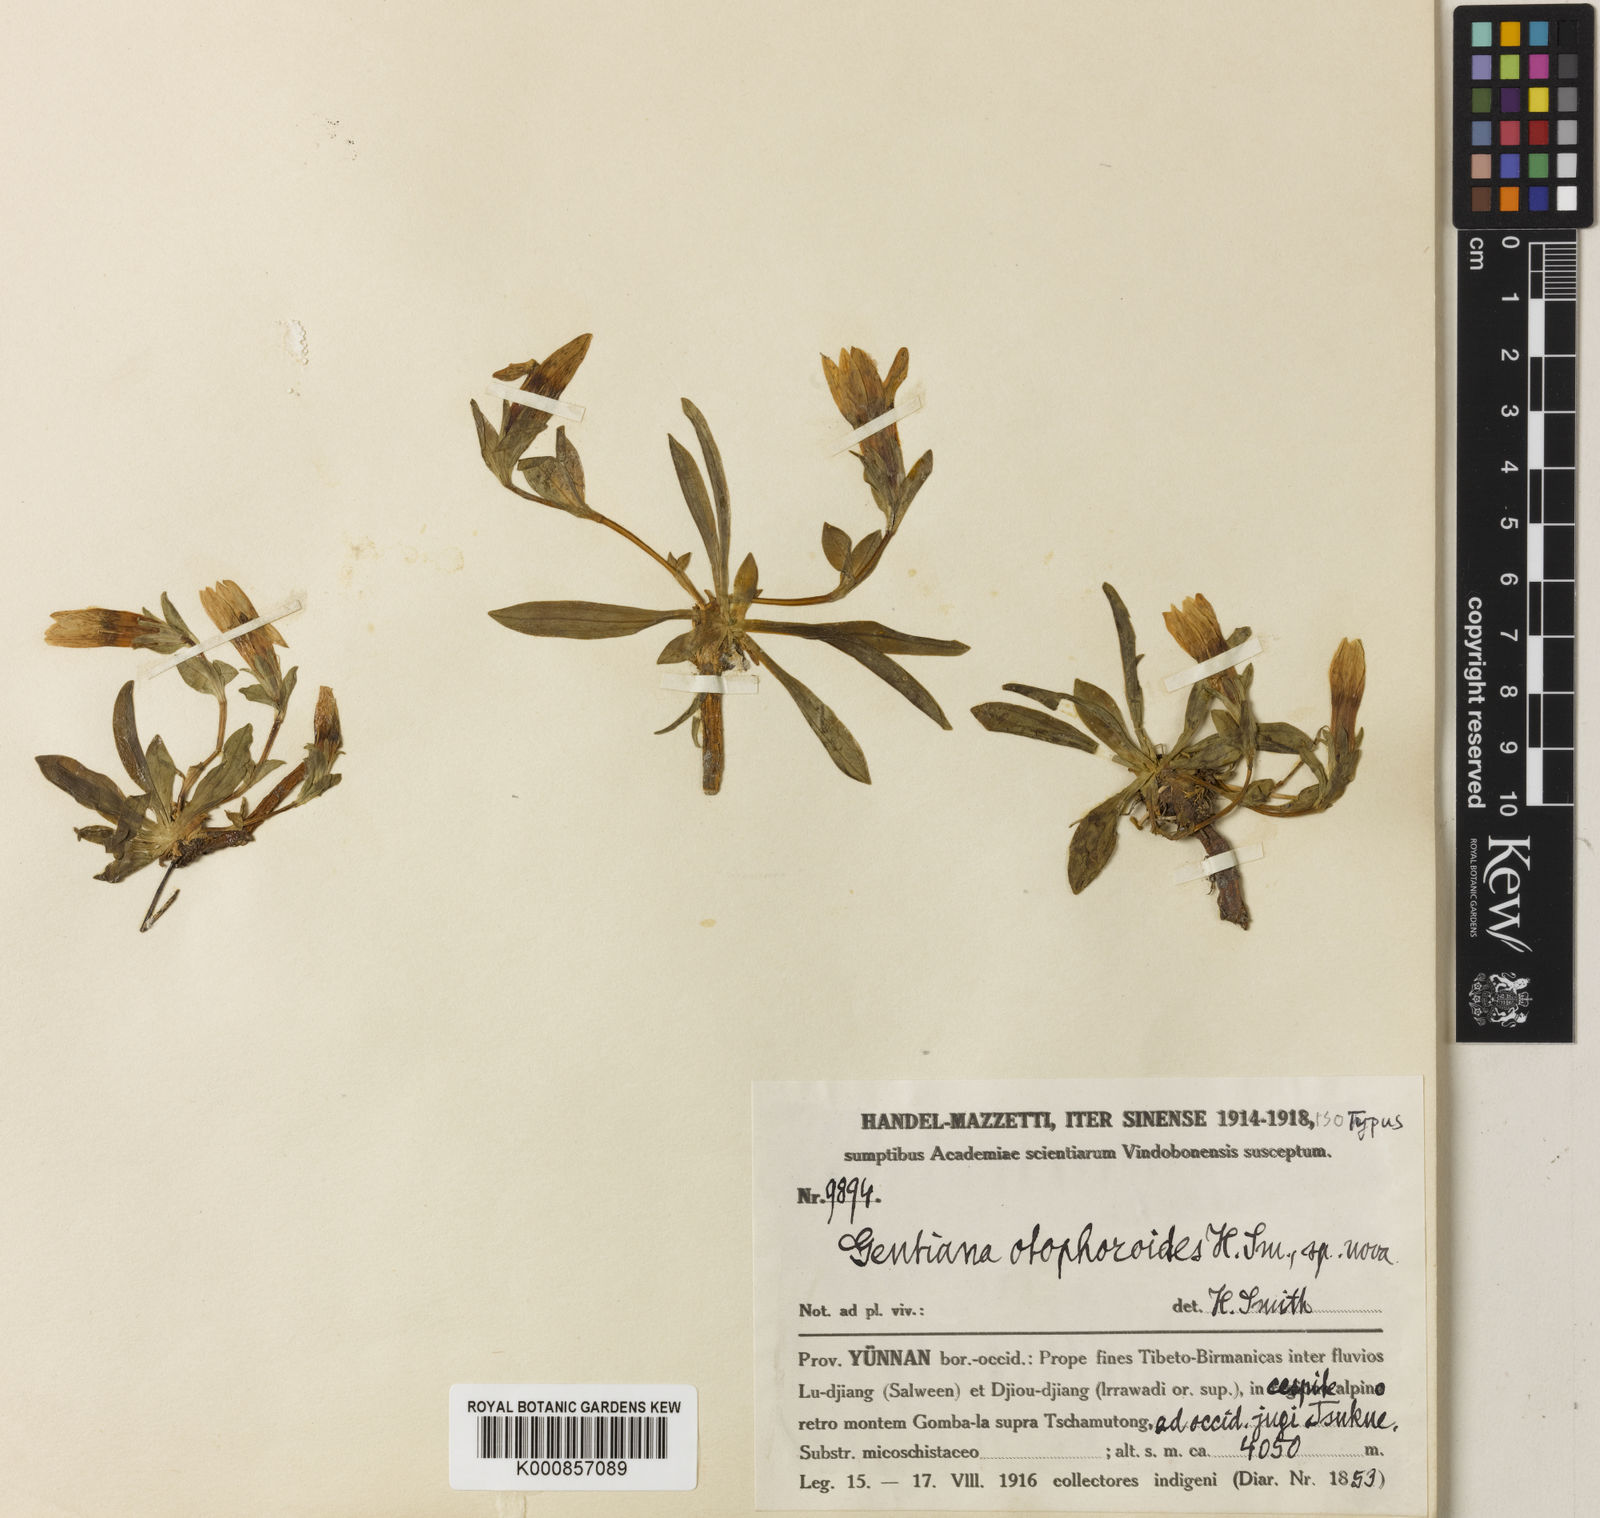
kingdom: Plantae
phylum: Tracheophyta
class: Magnoliopsida
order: Gentianales
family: Gentianaceae
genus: Kuepferia
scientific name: Kuepferia otophoroides
